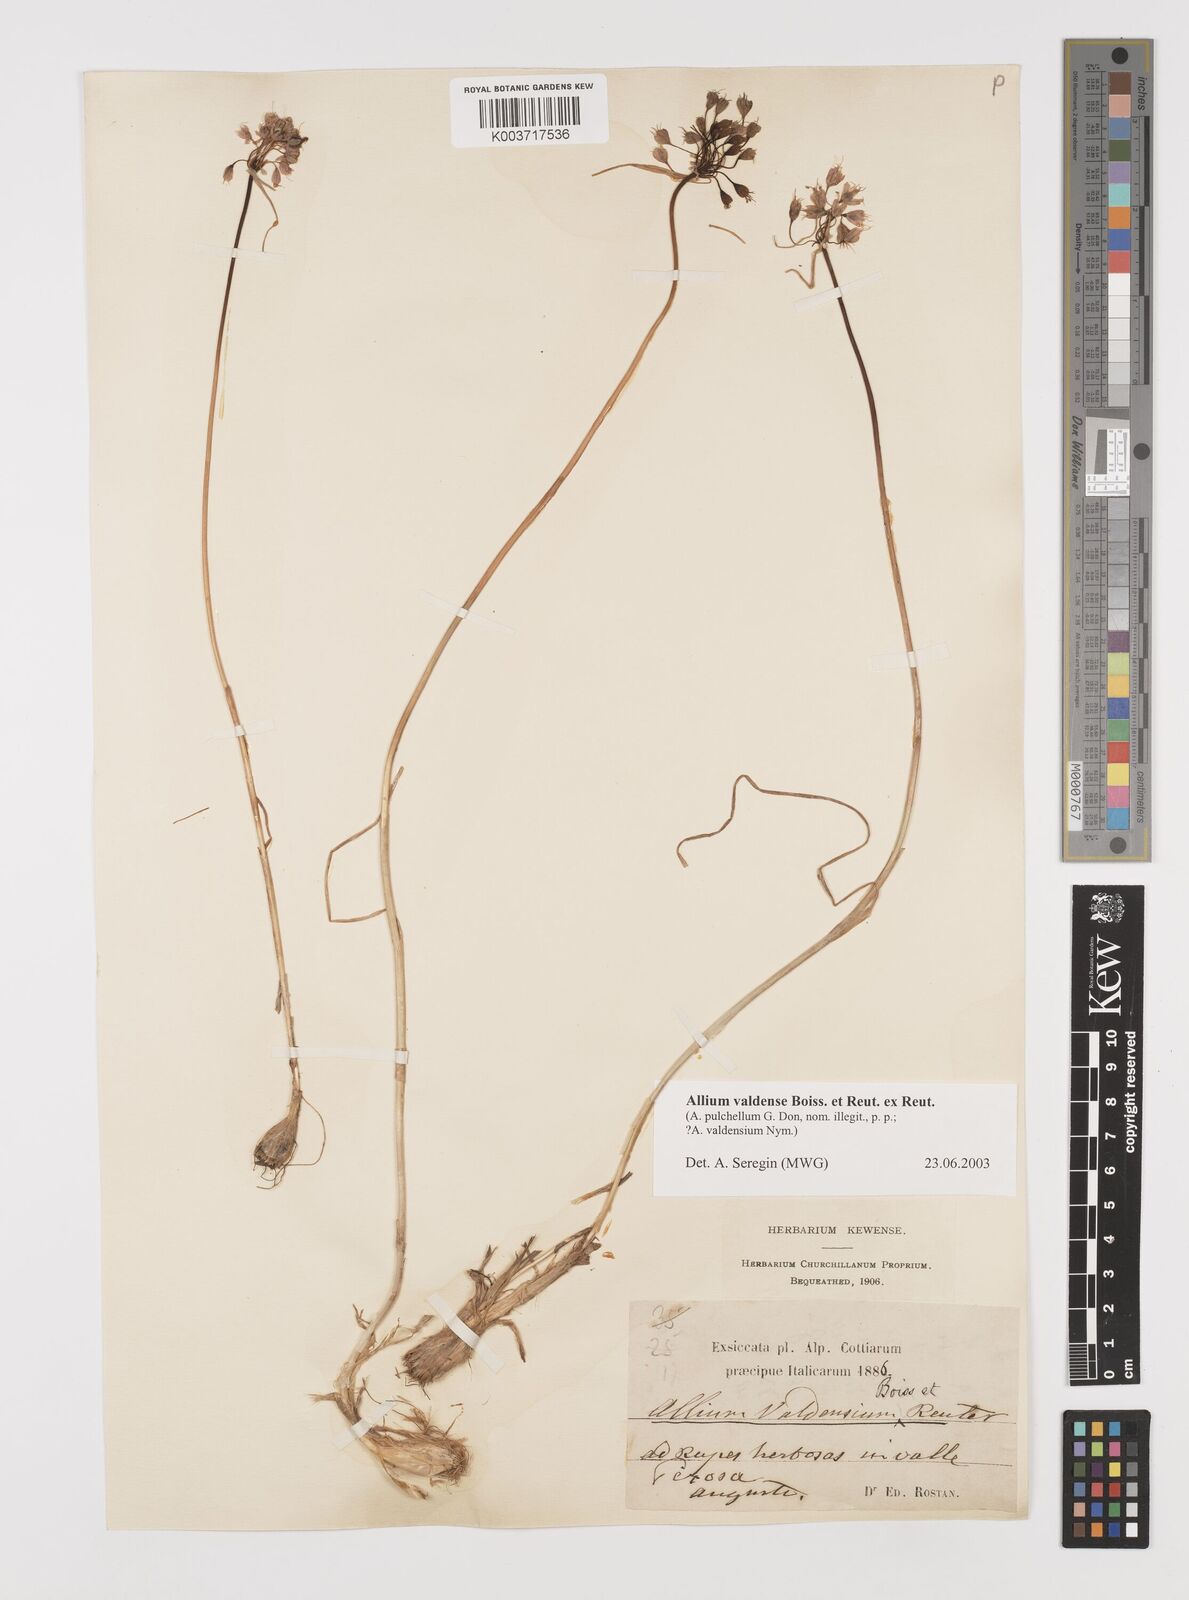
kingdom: Plantae
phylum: Tracheophyta
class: Liliopsida
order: Asparagales
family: Amaryllidaceae
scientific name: Amaryllidaceae
